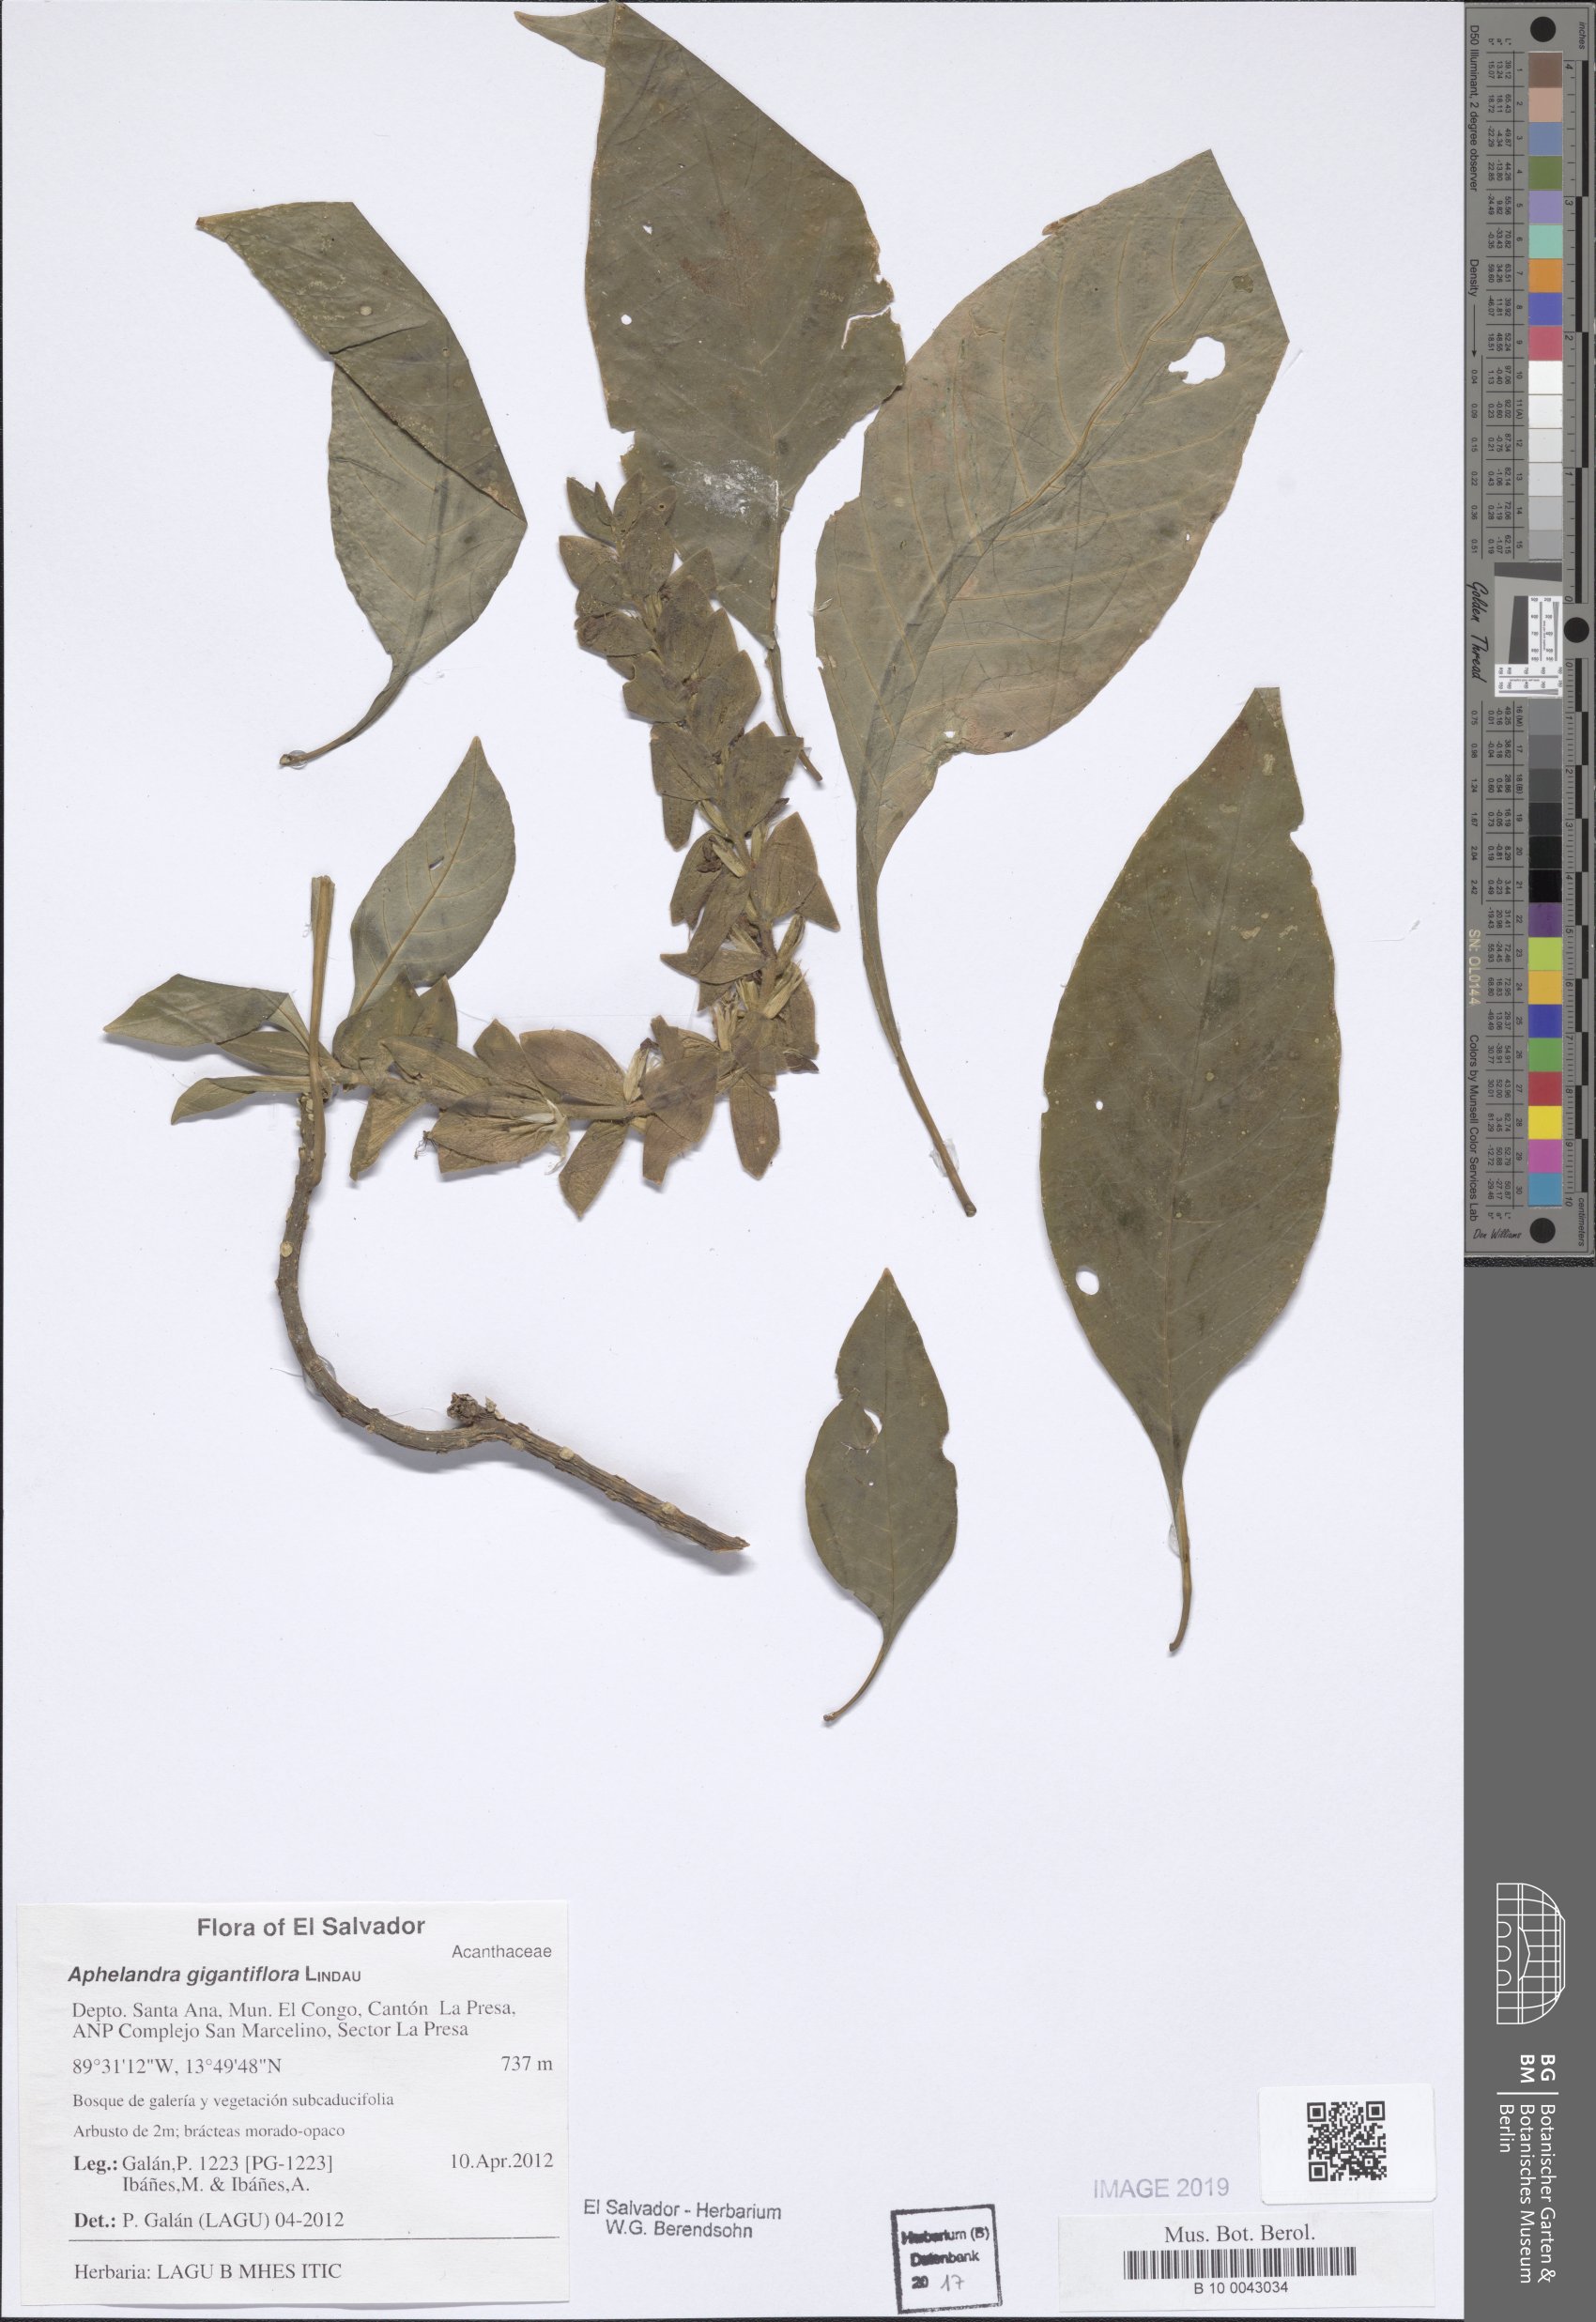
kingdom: Plantae
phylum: Tracheophyta
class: Magnoliopsida
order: Lamiales
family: Acanthaceae
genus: Aphelandra
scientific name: Aphelandra gigantiflora
